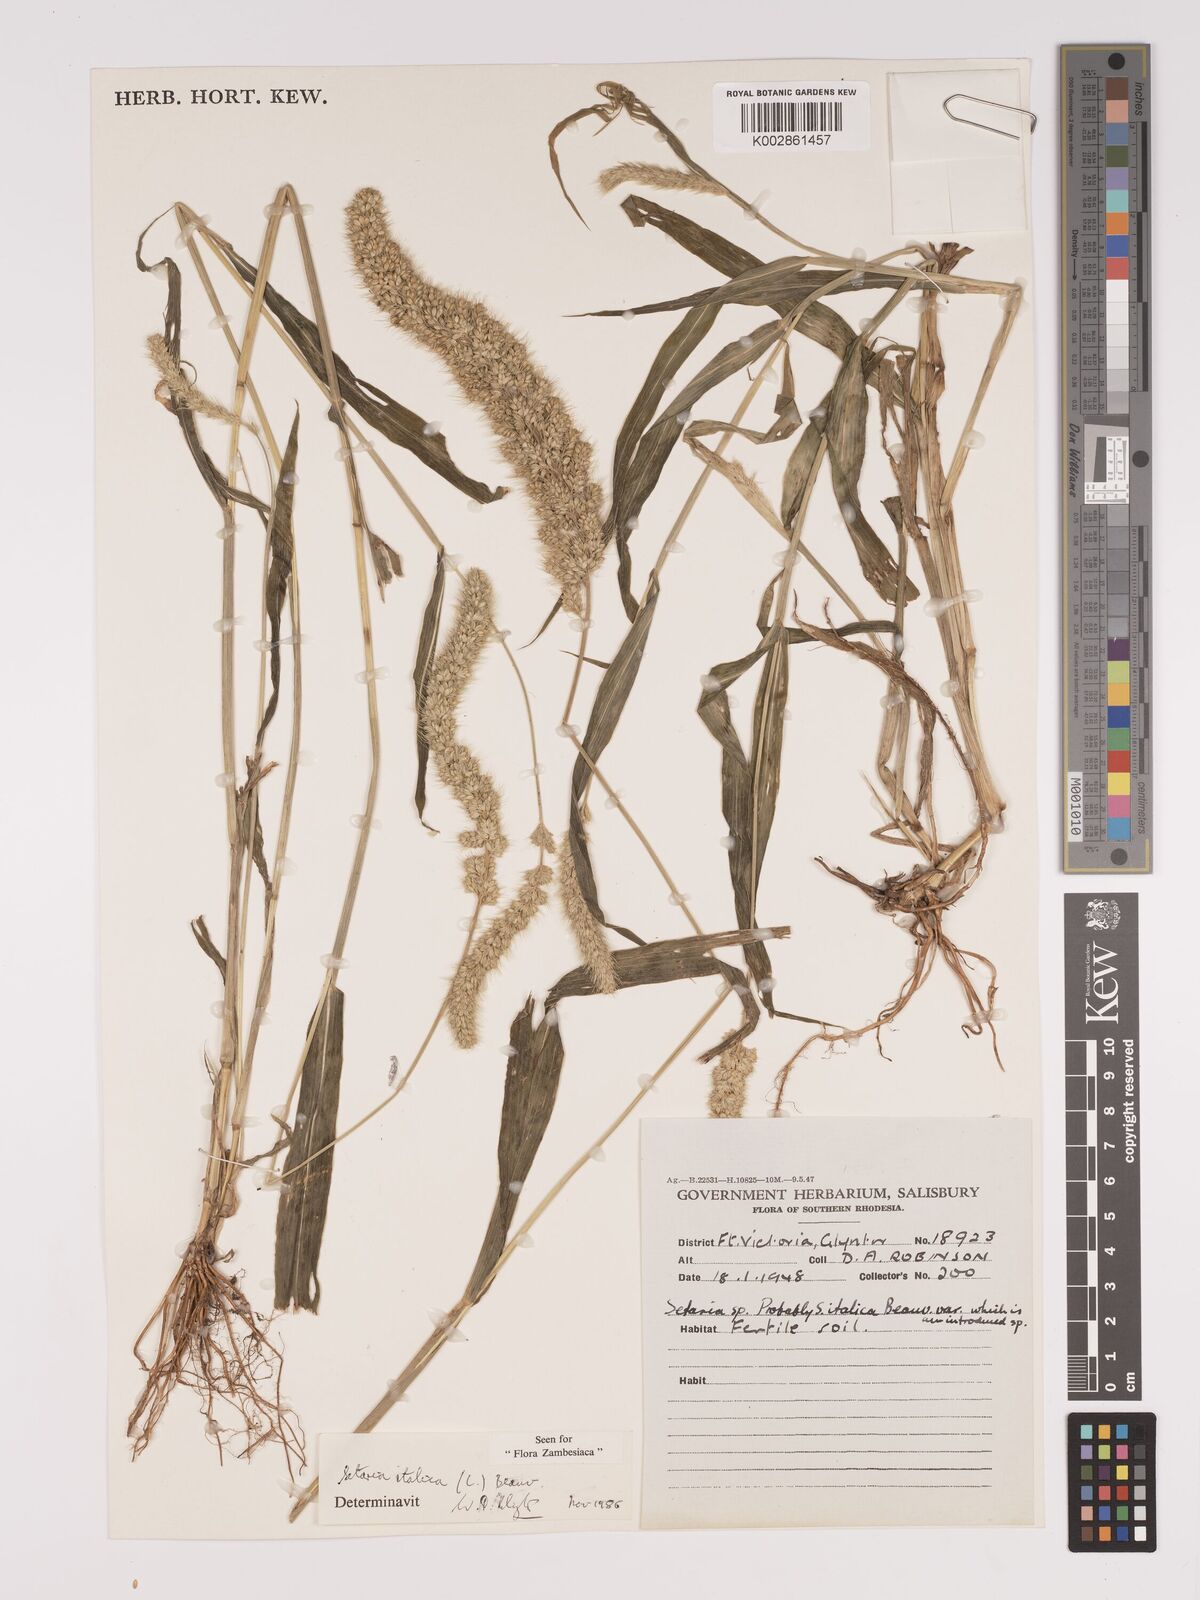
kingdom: Plantae
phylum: Tracheophyta
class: Liliopsida
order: Poales
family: Poaceae
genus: Setaria
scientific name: Setaria italica
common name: Foxtail bristle-grass
